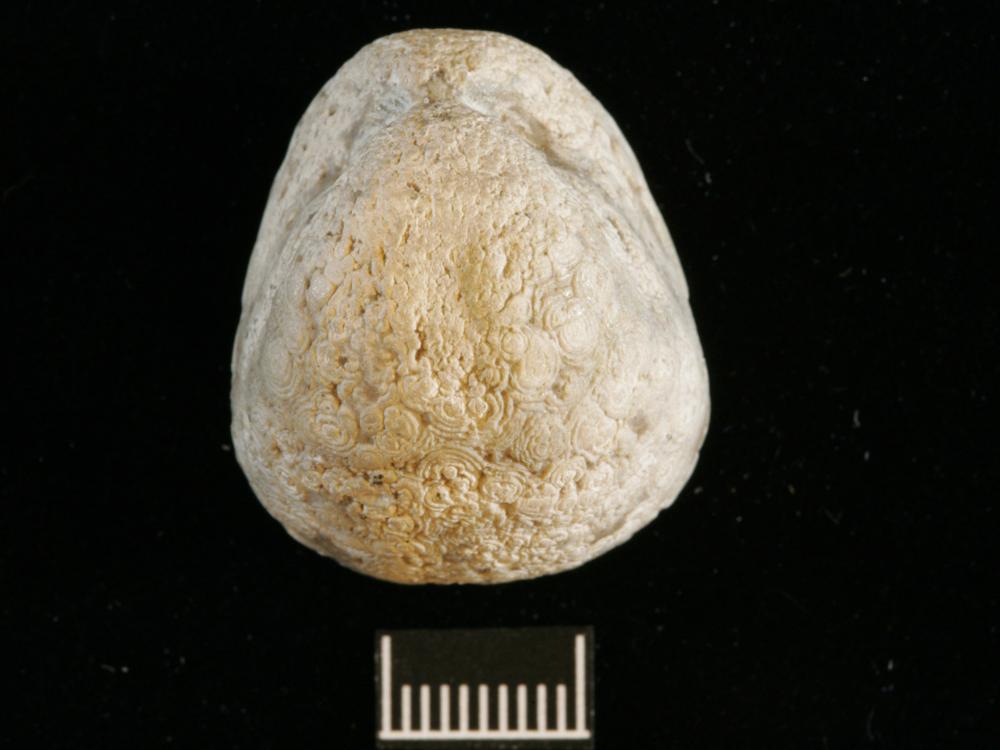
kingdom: Animalia
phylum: Brachiopoda
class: Rhynchonellata
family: Porambonitidae
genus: Porambonites
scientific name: Porambonites baueri
